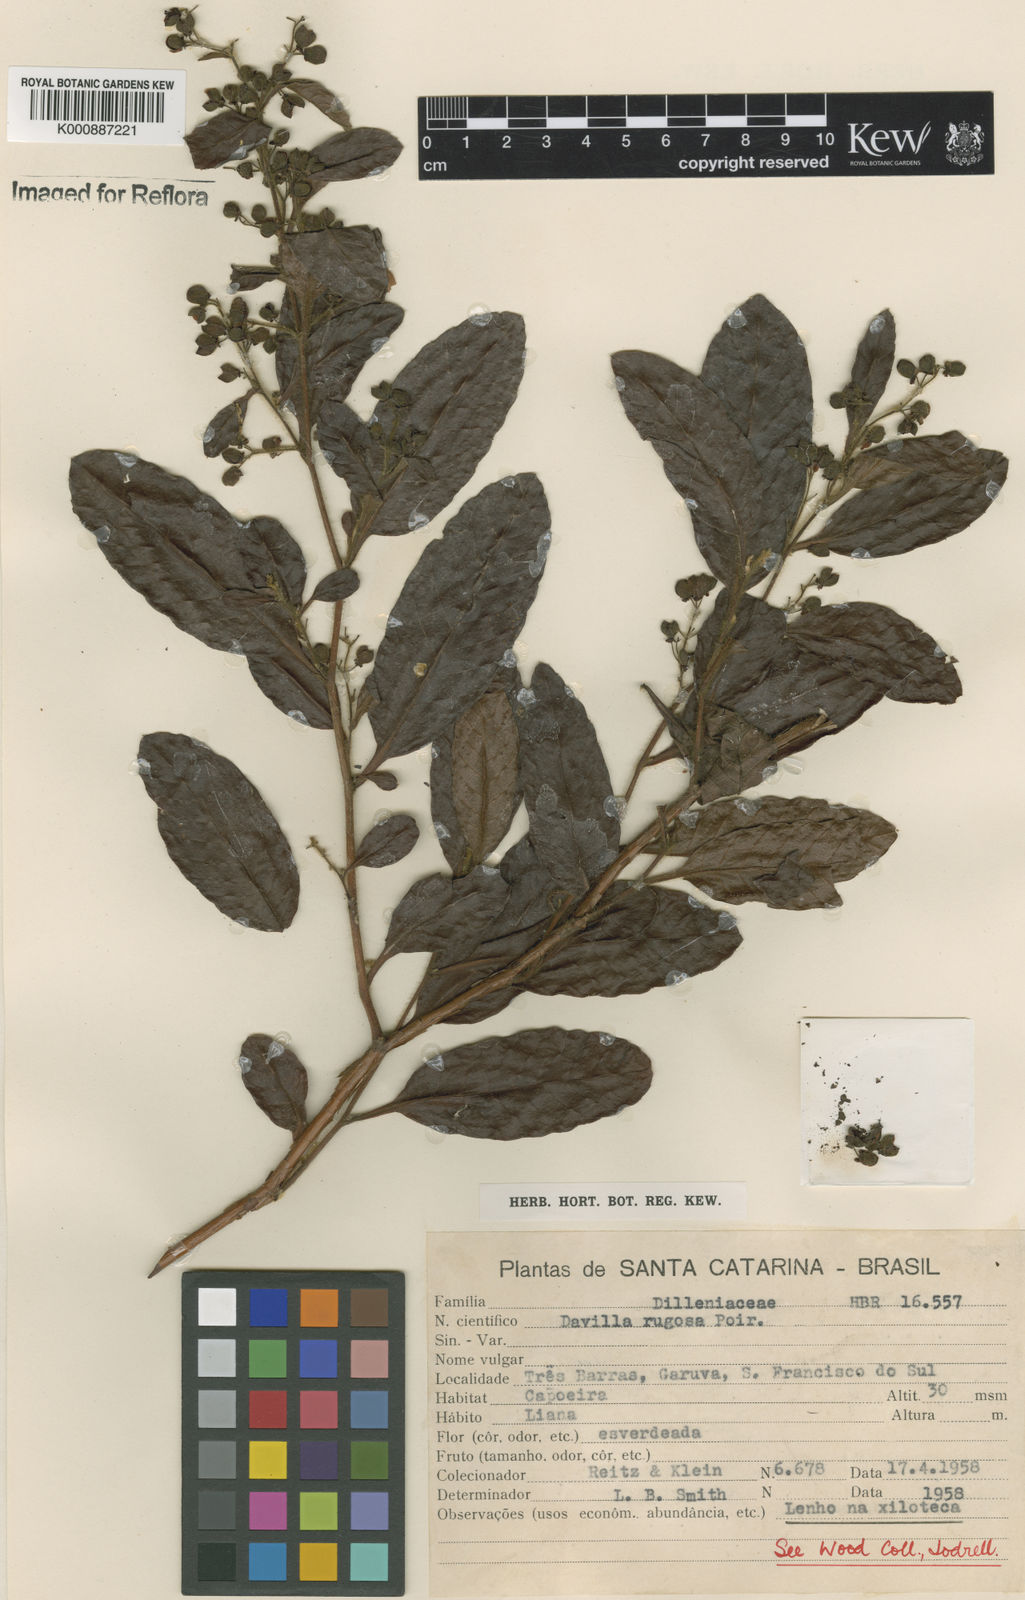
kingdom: Plantae
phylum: Tracheophyta
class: Magnoliopsida
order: Dilleniales
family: Dilleniaceae
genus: Davilla
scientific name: Davilla rugosa
